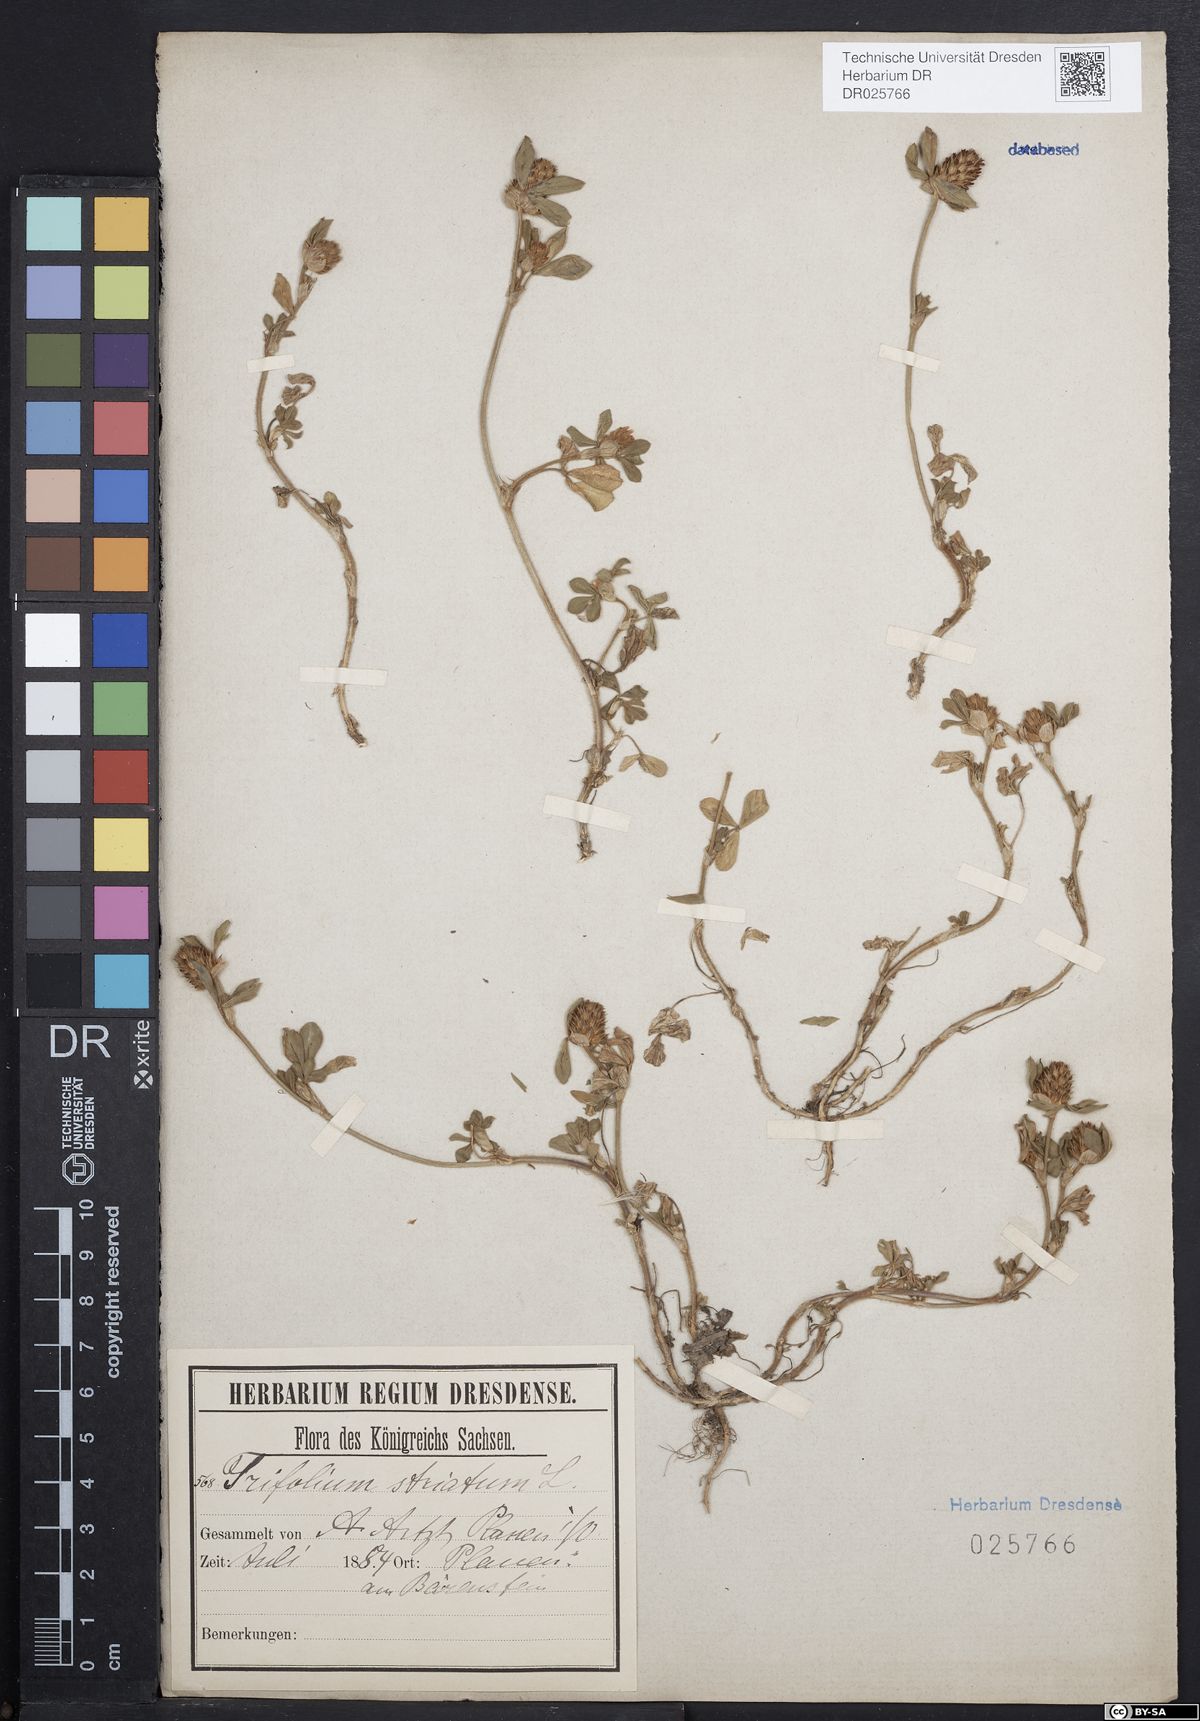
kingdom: Plantae
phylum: Tracheophyta
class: Magnoliopsida
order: Fabales
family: Fabaceae
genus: Trifolium
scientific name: Trifolium striatum
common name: Knotted clover
